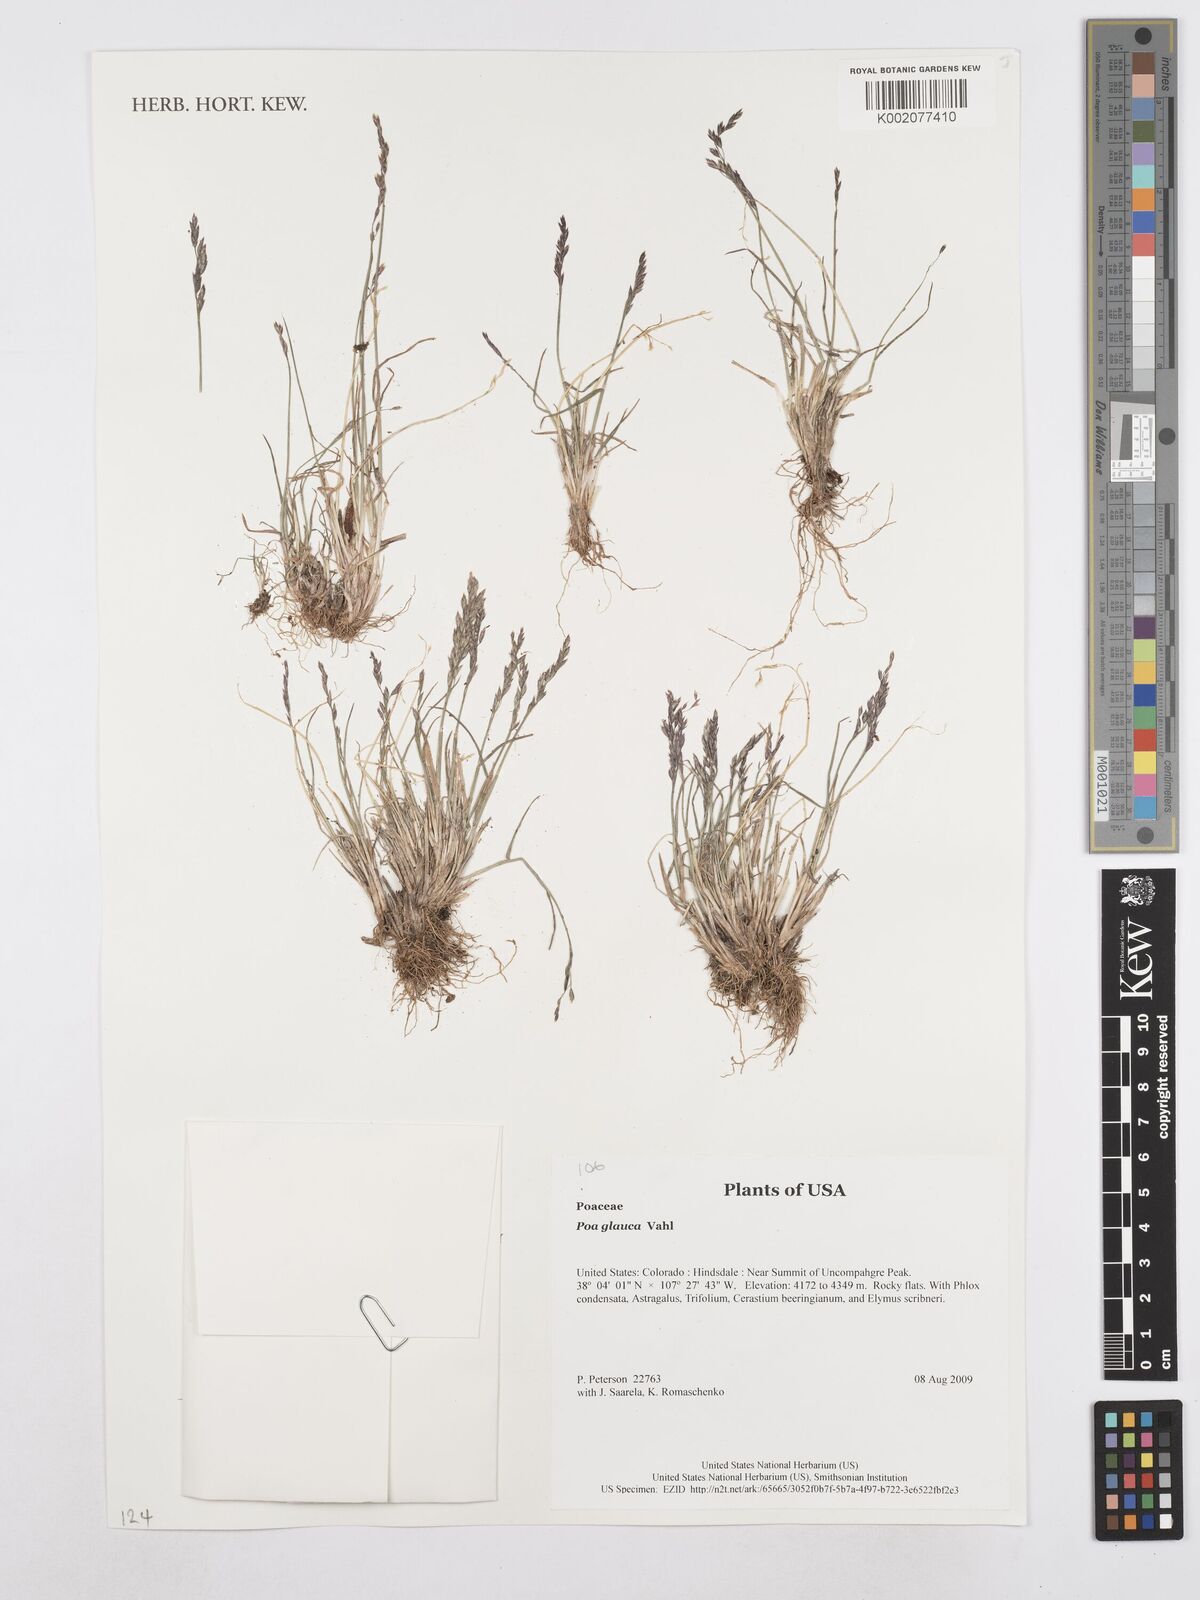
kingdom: Plantae
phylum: Tracheophyta
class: Liliopsida
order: Poales
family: Poaceae
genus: Poa
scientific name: Poa glauca
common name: Glaucous bluegrass
